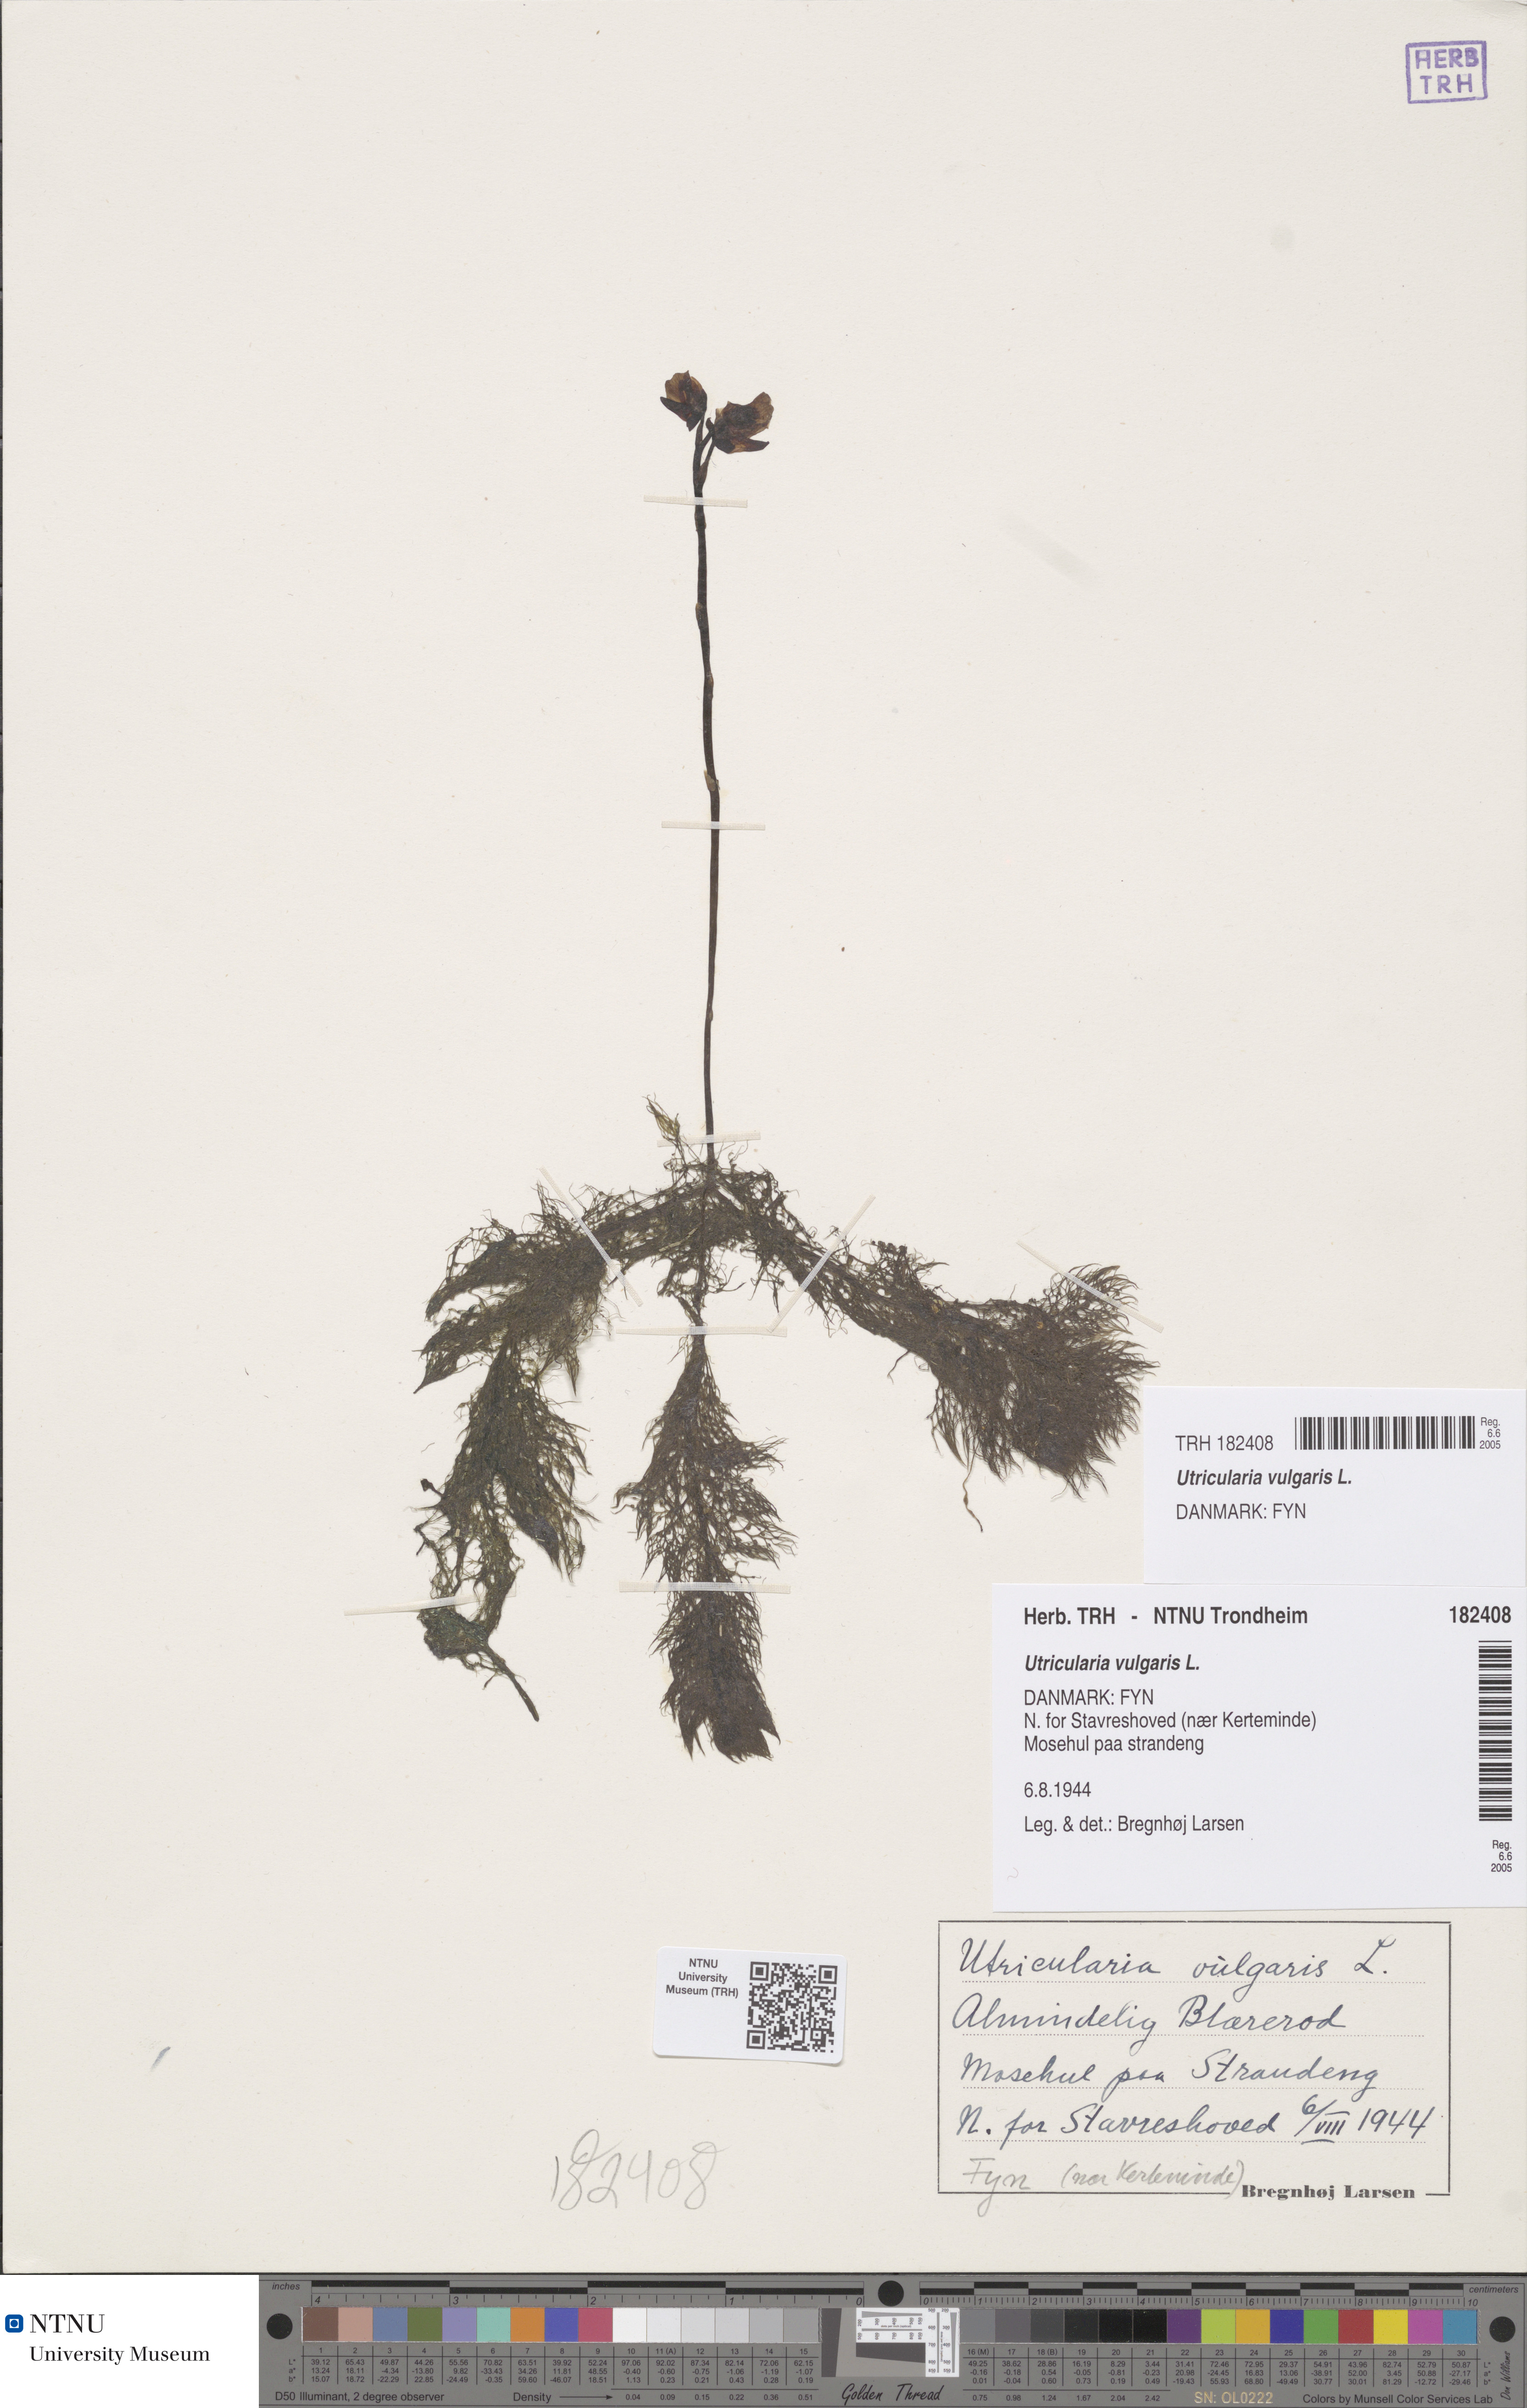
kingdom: Plantae
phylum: Tracheophyta
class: Magnoliopsida
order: Lamiales
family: Lentibulariaceae
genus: Utricularia
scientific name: Utricularia vulgaris
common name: Greater bladderwort
